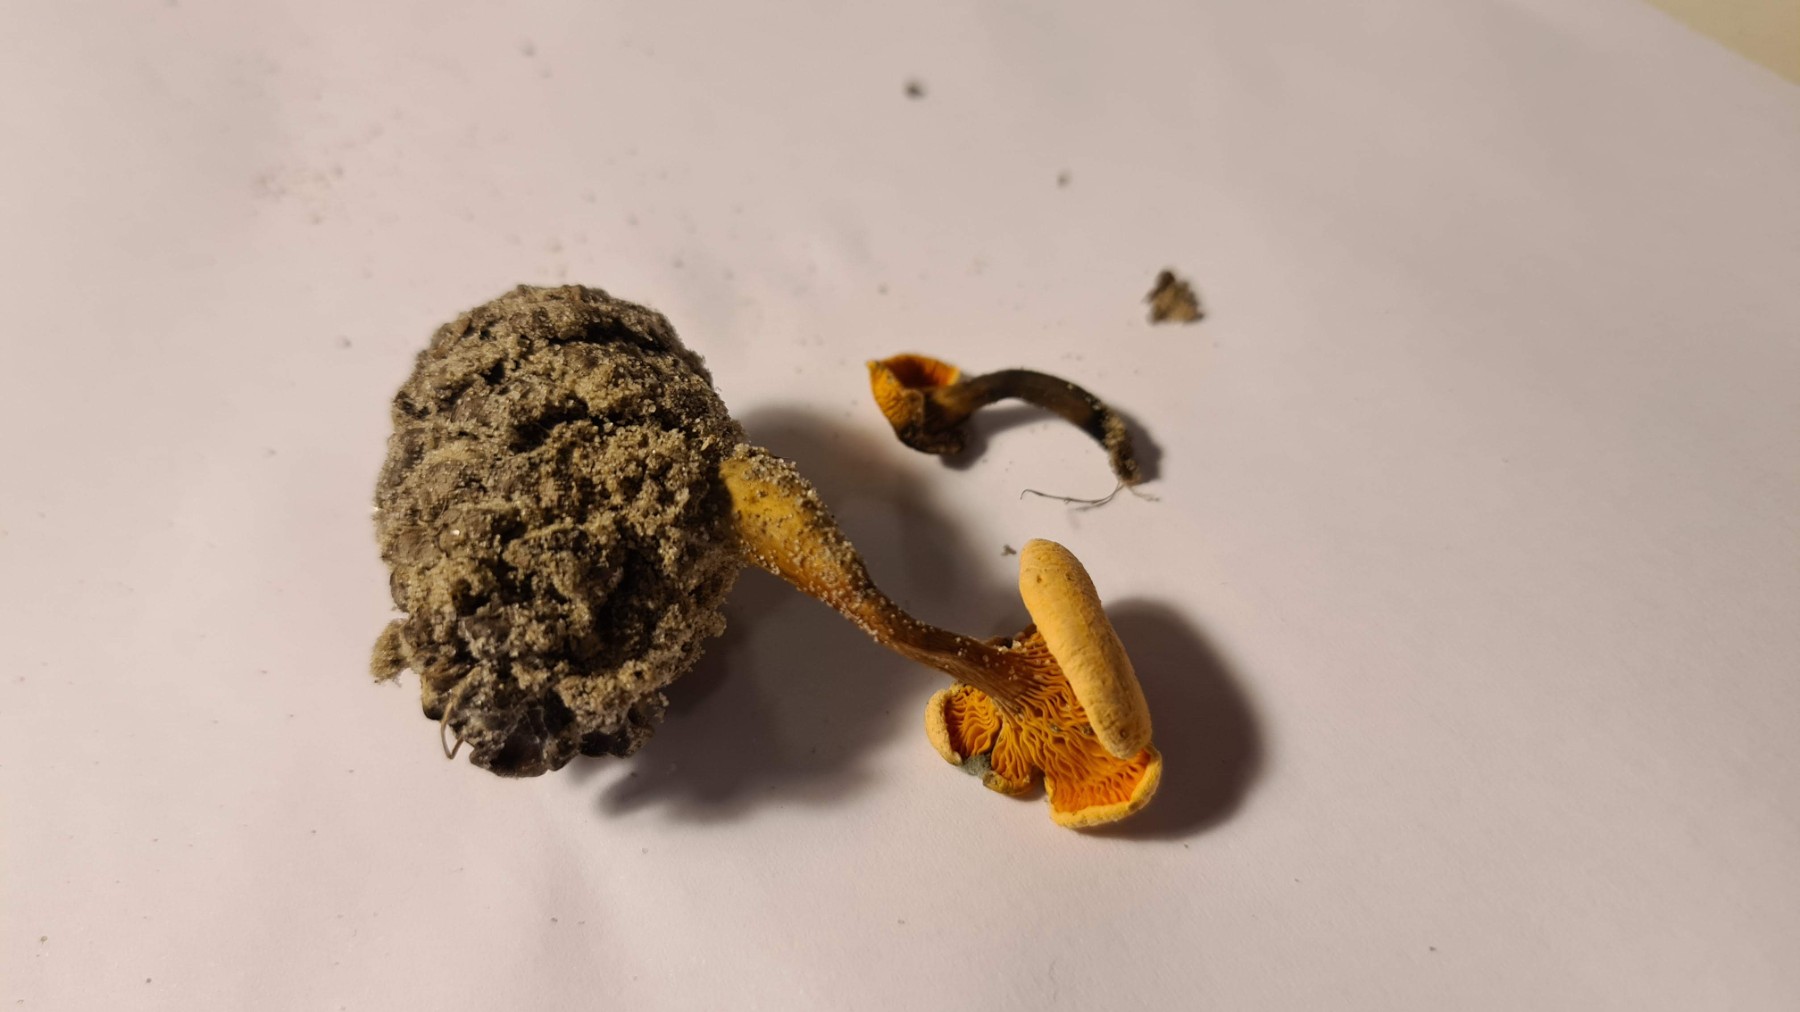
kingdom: Fungi
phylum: Basidiomycota
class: Agaricomycetes
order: Boletales
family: Hygrophoropsidaceae
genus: Hygrophoropsis
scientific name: Hygrophoropsis aurantiaca
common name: almindelig orangekantarel
